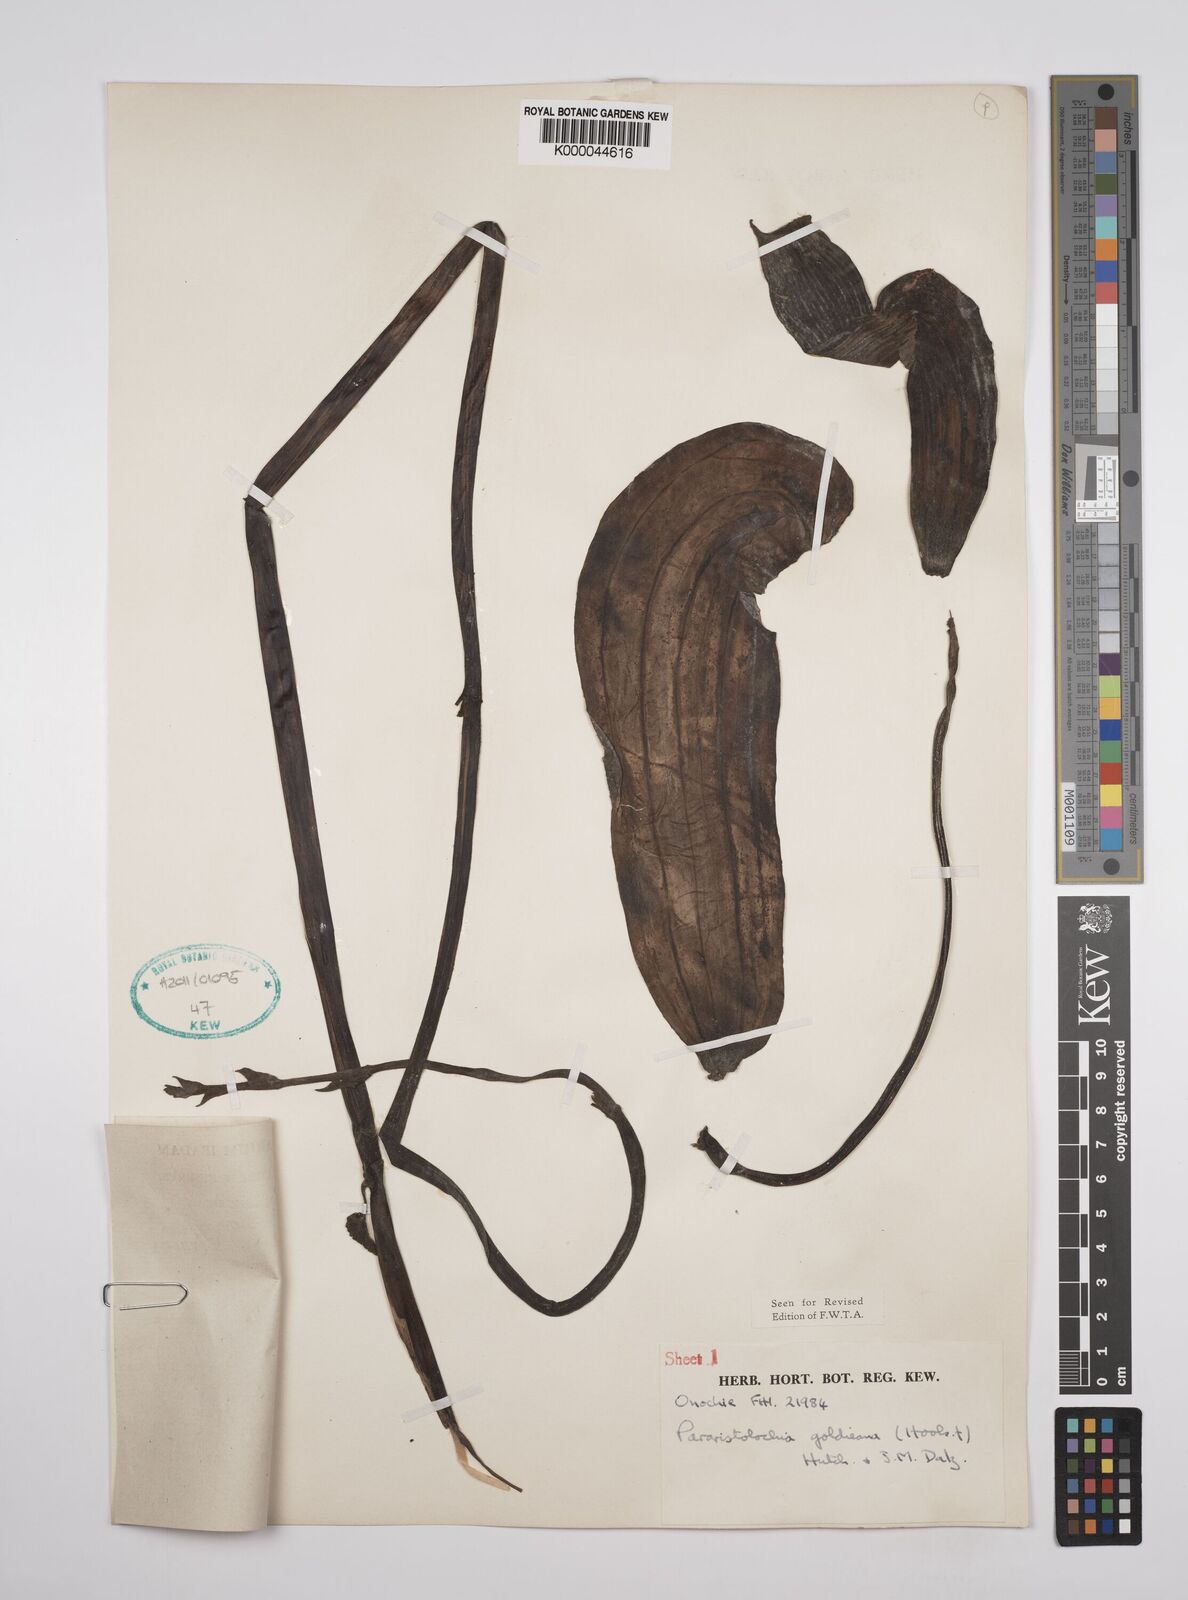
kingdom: Plantae
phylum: Tracheophyta
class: Magnoliopsida
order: Piperales
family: Aristolochiaceae
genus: Aristolochia
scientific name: Aristolochia goldieana
